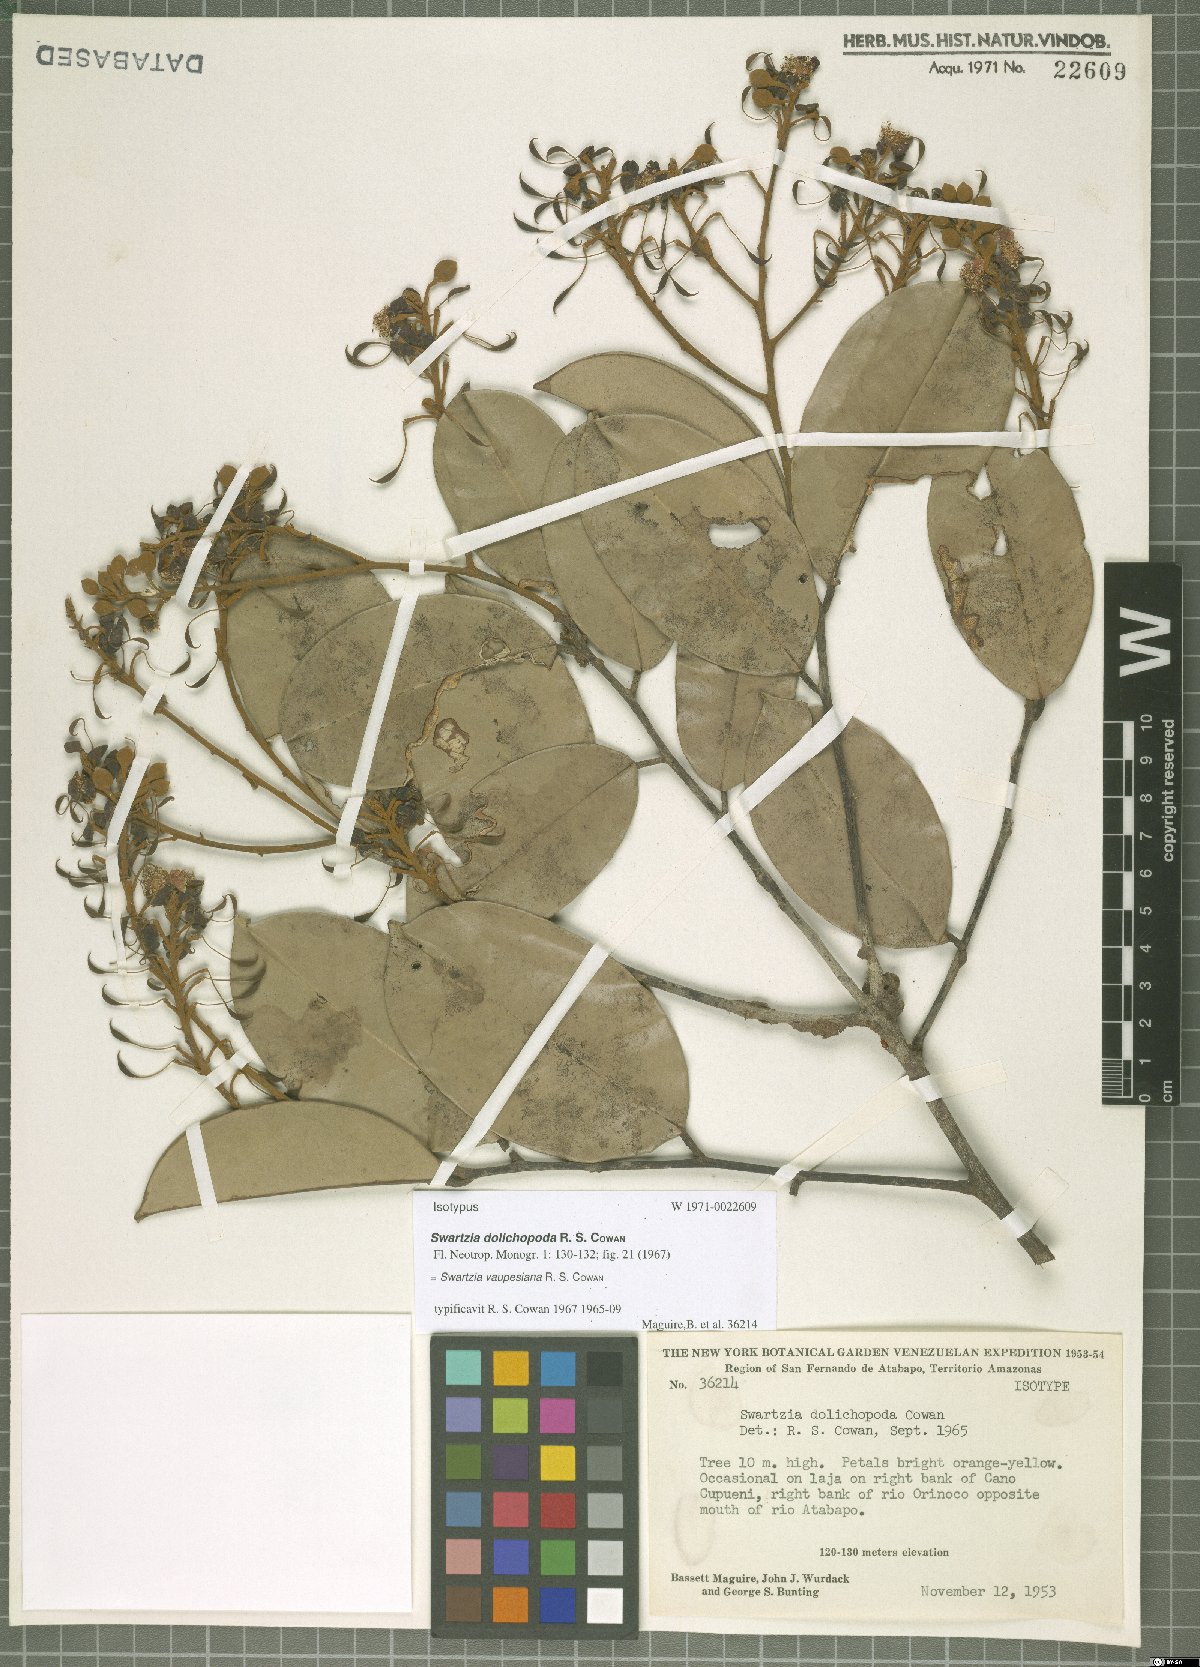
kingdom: Plantae
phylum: Tracheophyta
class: Magnoliopsida
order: Fabales
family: Fabaceae
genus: Swartzia
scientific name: Swartzia vaupesiana
